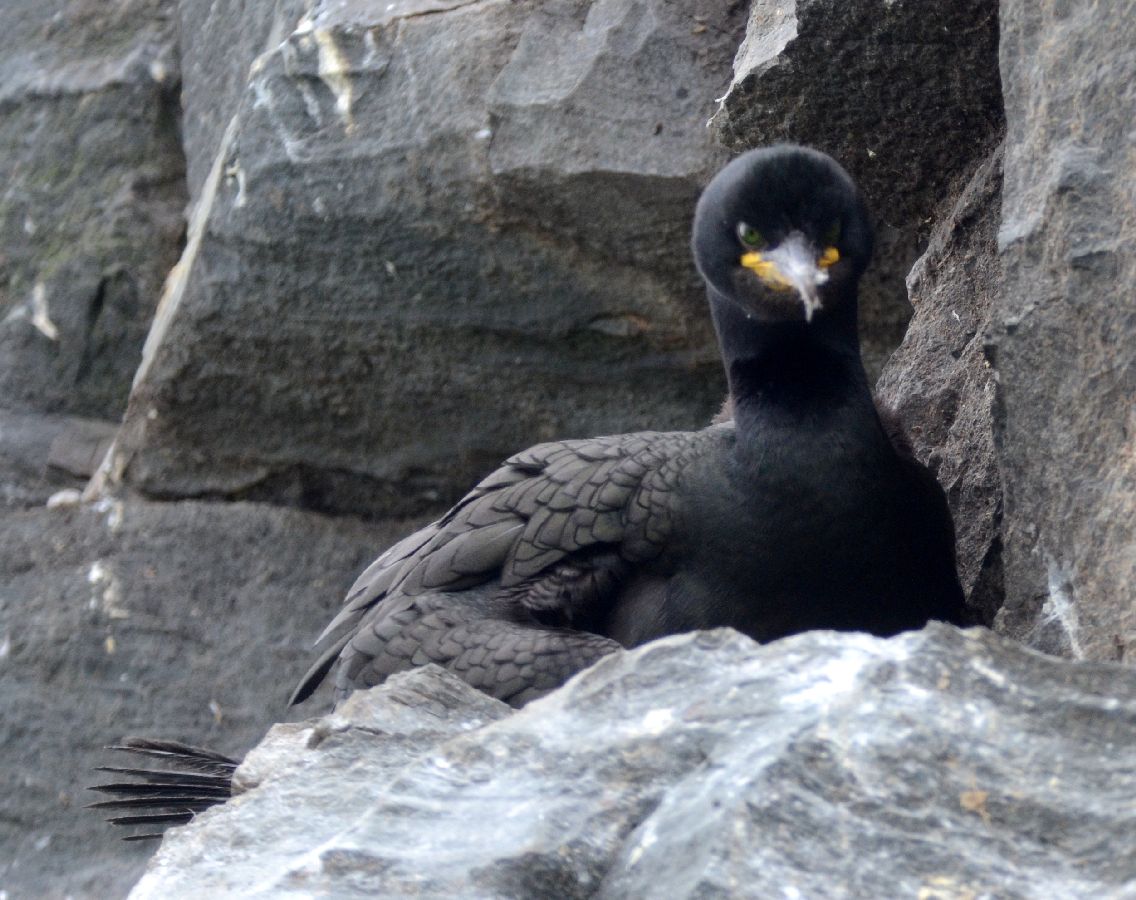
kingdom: Animalia
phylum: Chordata
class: Aves
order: Suliformes
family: Phalacrocoracidae
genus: Phalacrocorax
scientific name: Phalacrocorax aristotelis
